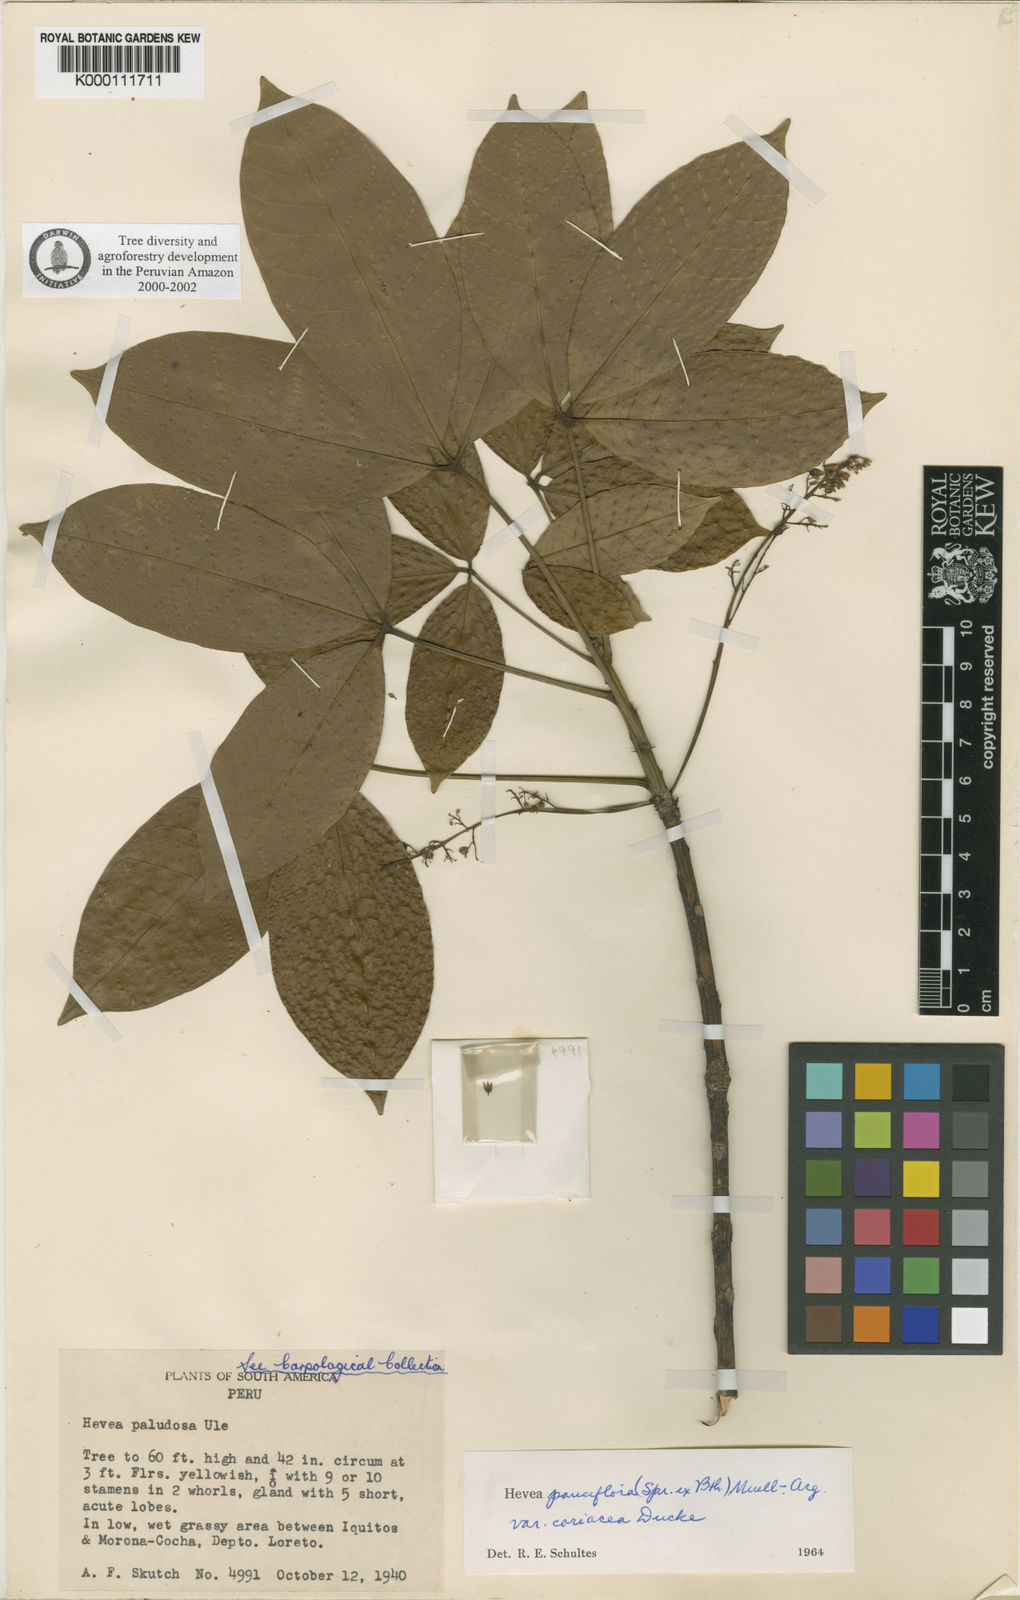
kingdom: Plantae
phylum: Tracheophyta
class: Magnoliopsida
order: Malpighiales
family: Euphorbiaceae
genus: Hevea
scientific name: Hevea pauciflora
